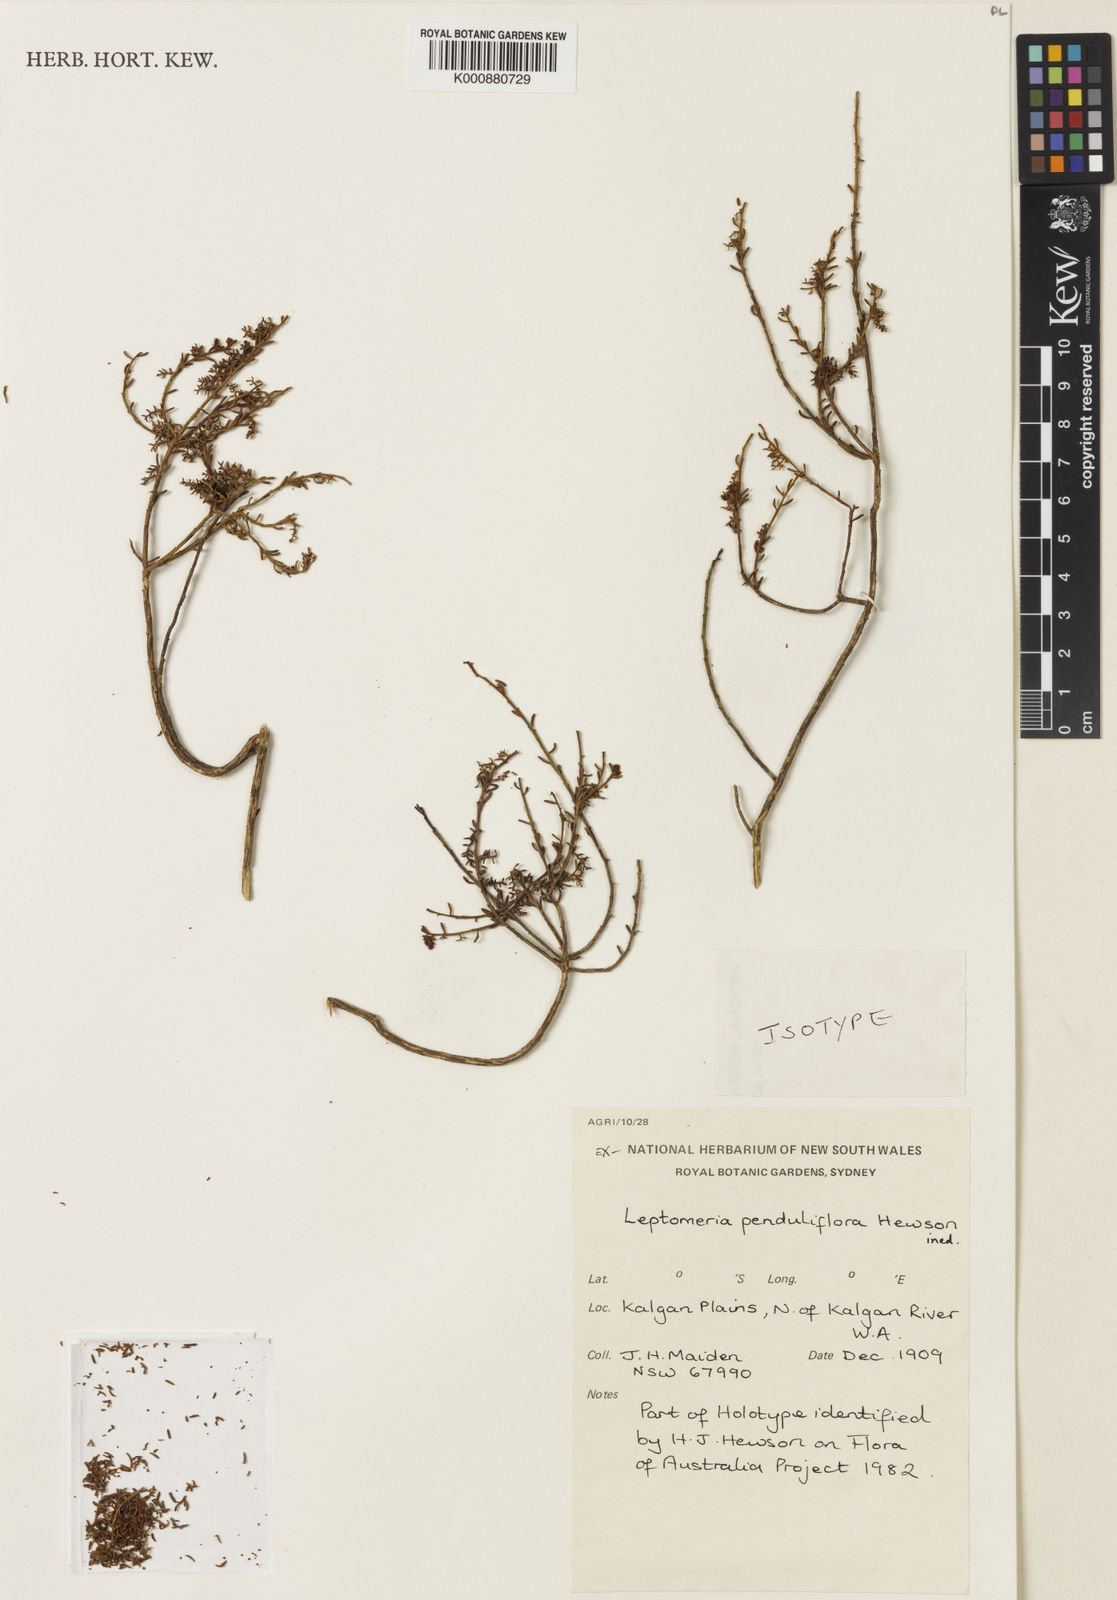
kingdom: Plantae
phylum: Tracheophyta
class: Magnoliopsida
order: Santalales
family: Amphorogynaceae
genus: Leptomeria
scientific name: Leptomeria penduliflora
